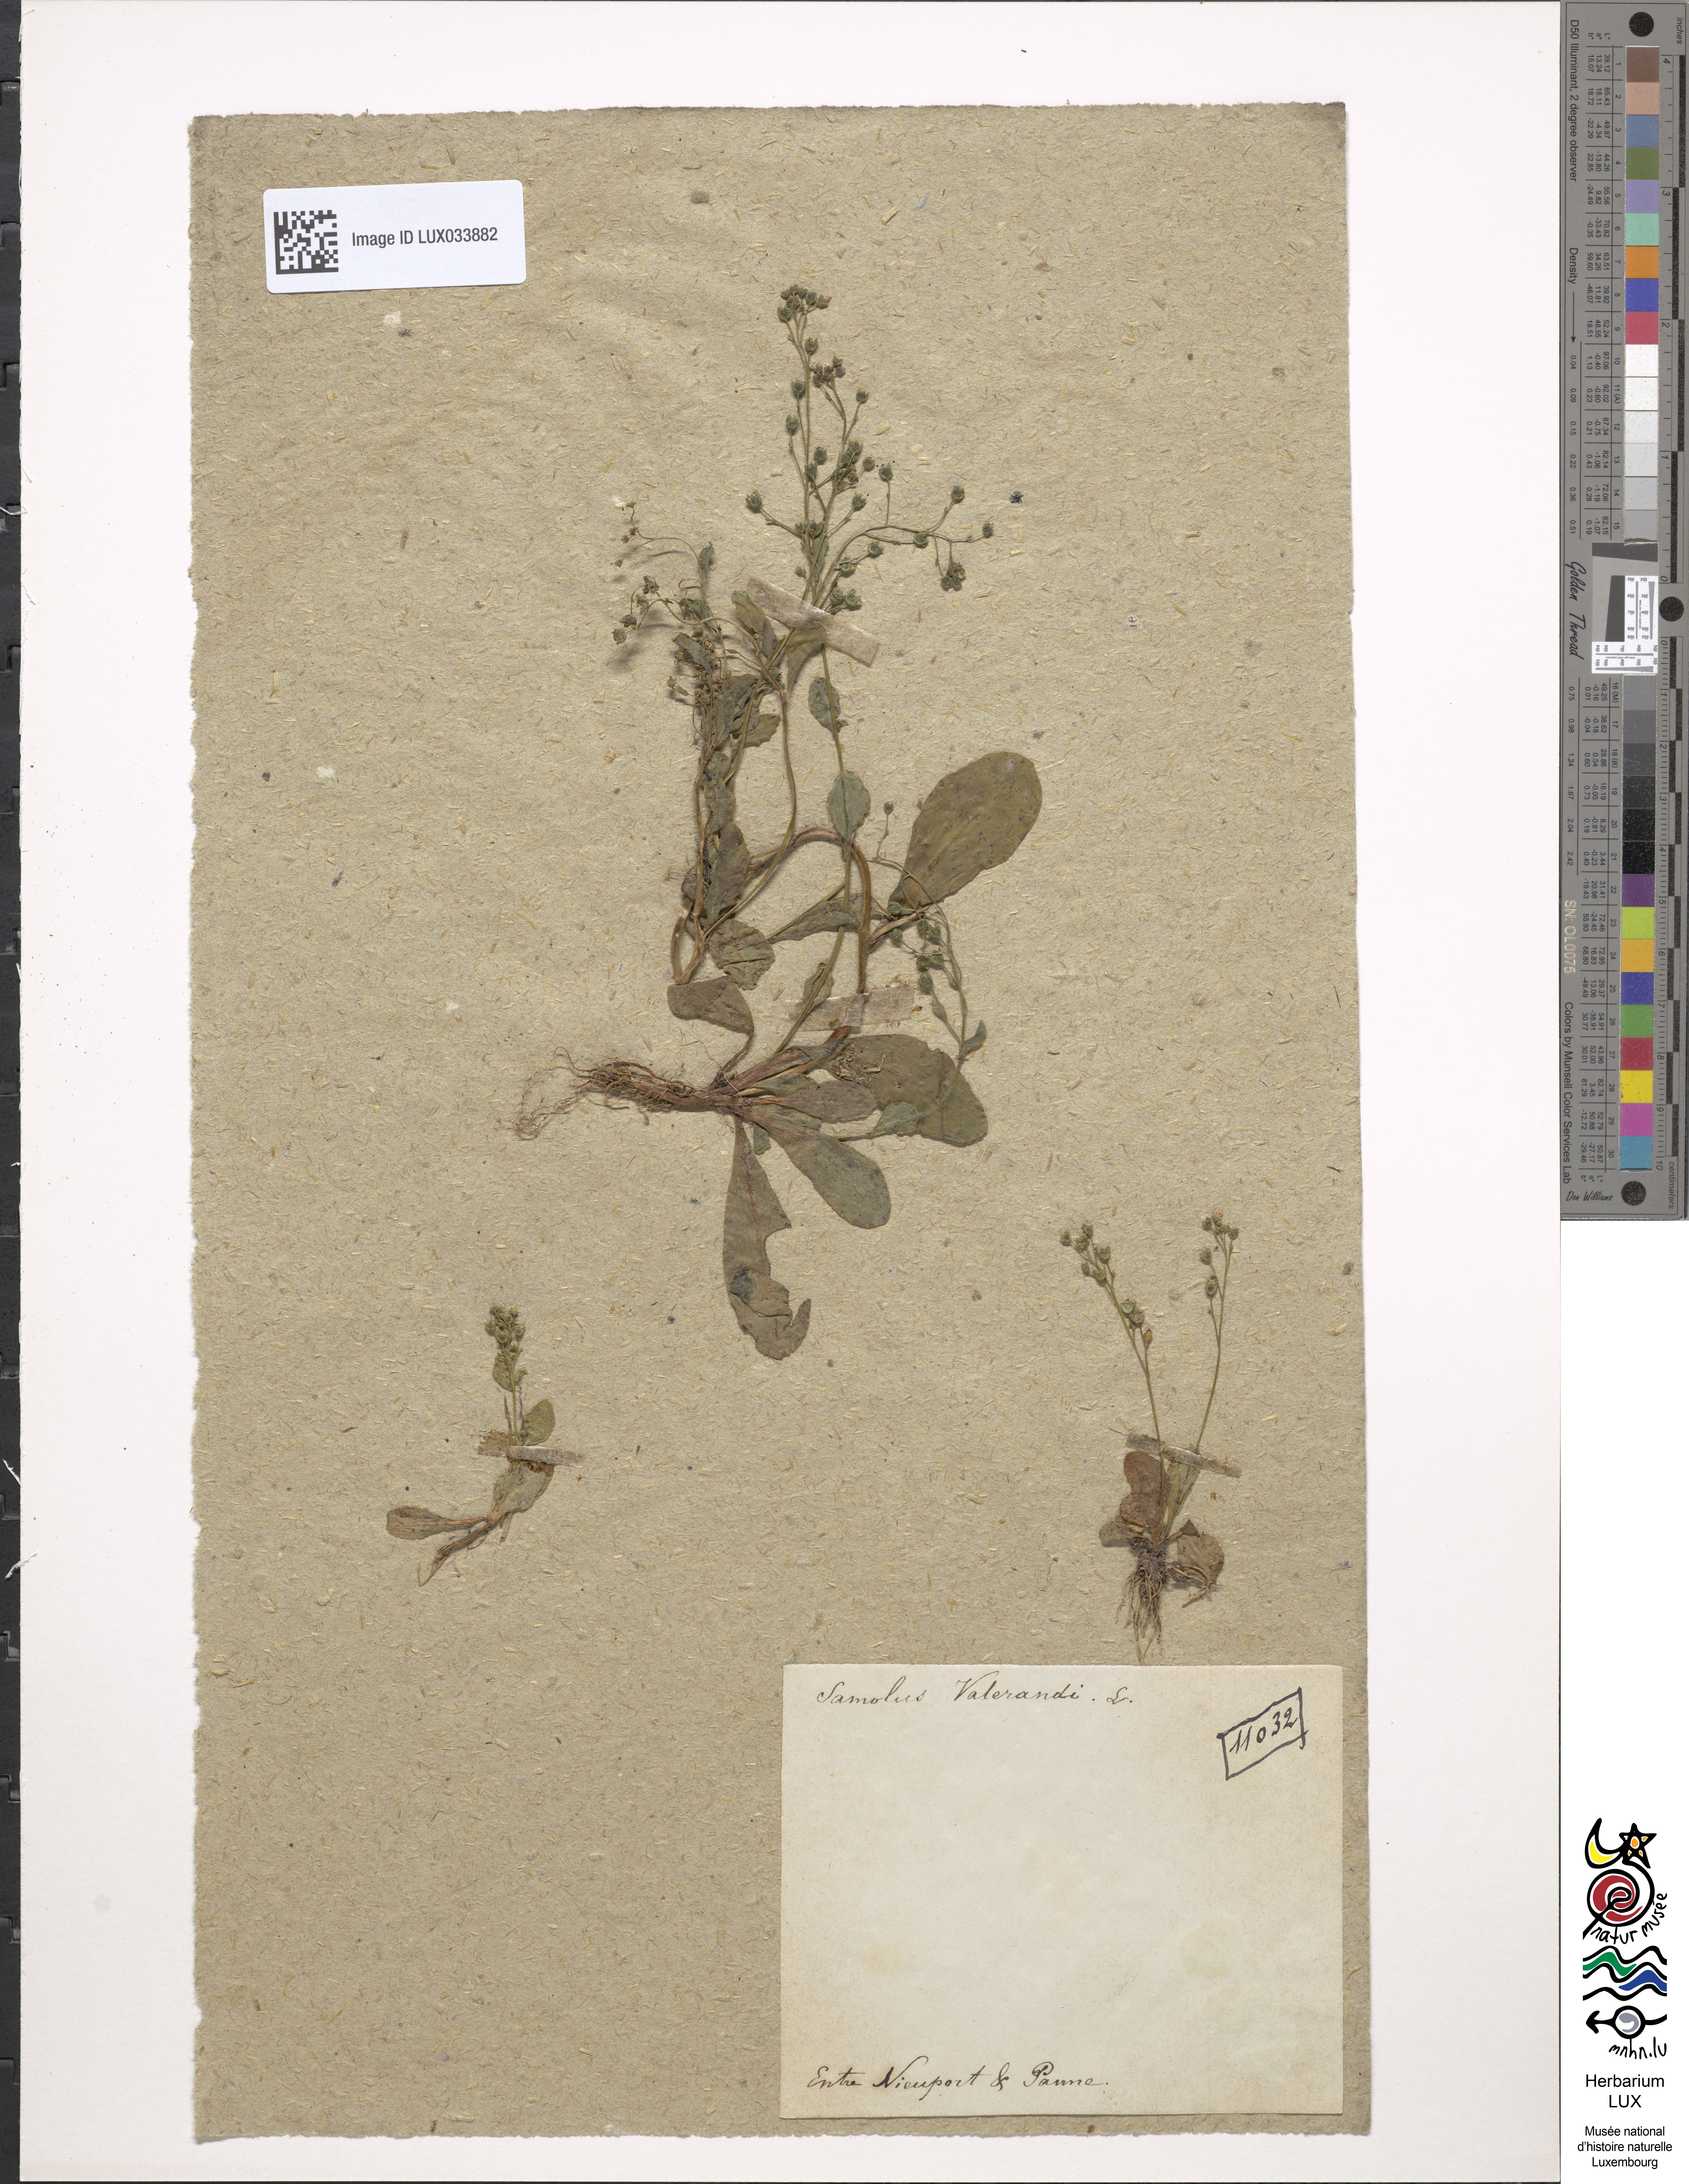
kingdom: Plantae
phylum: Tracheophyta
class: Magnoliopsida
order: Ericales
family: Primulaceae
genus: Samolus
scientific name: Samolus valerandi
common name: Brookweed
